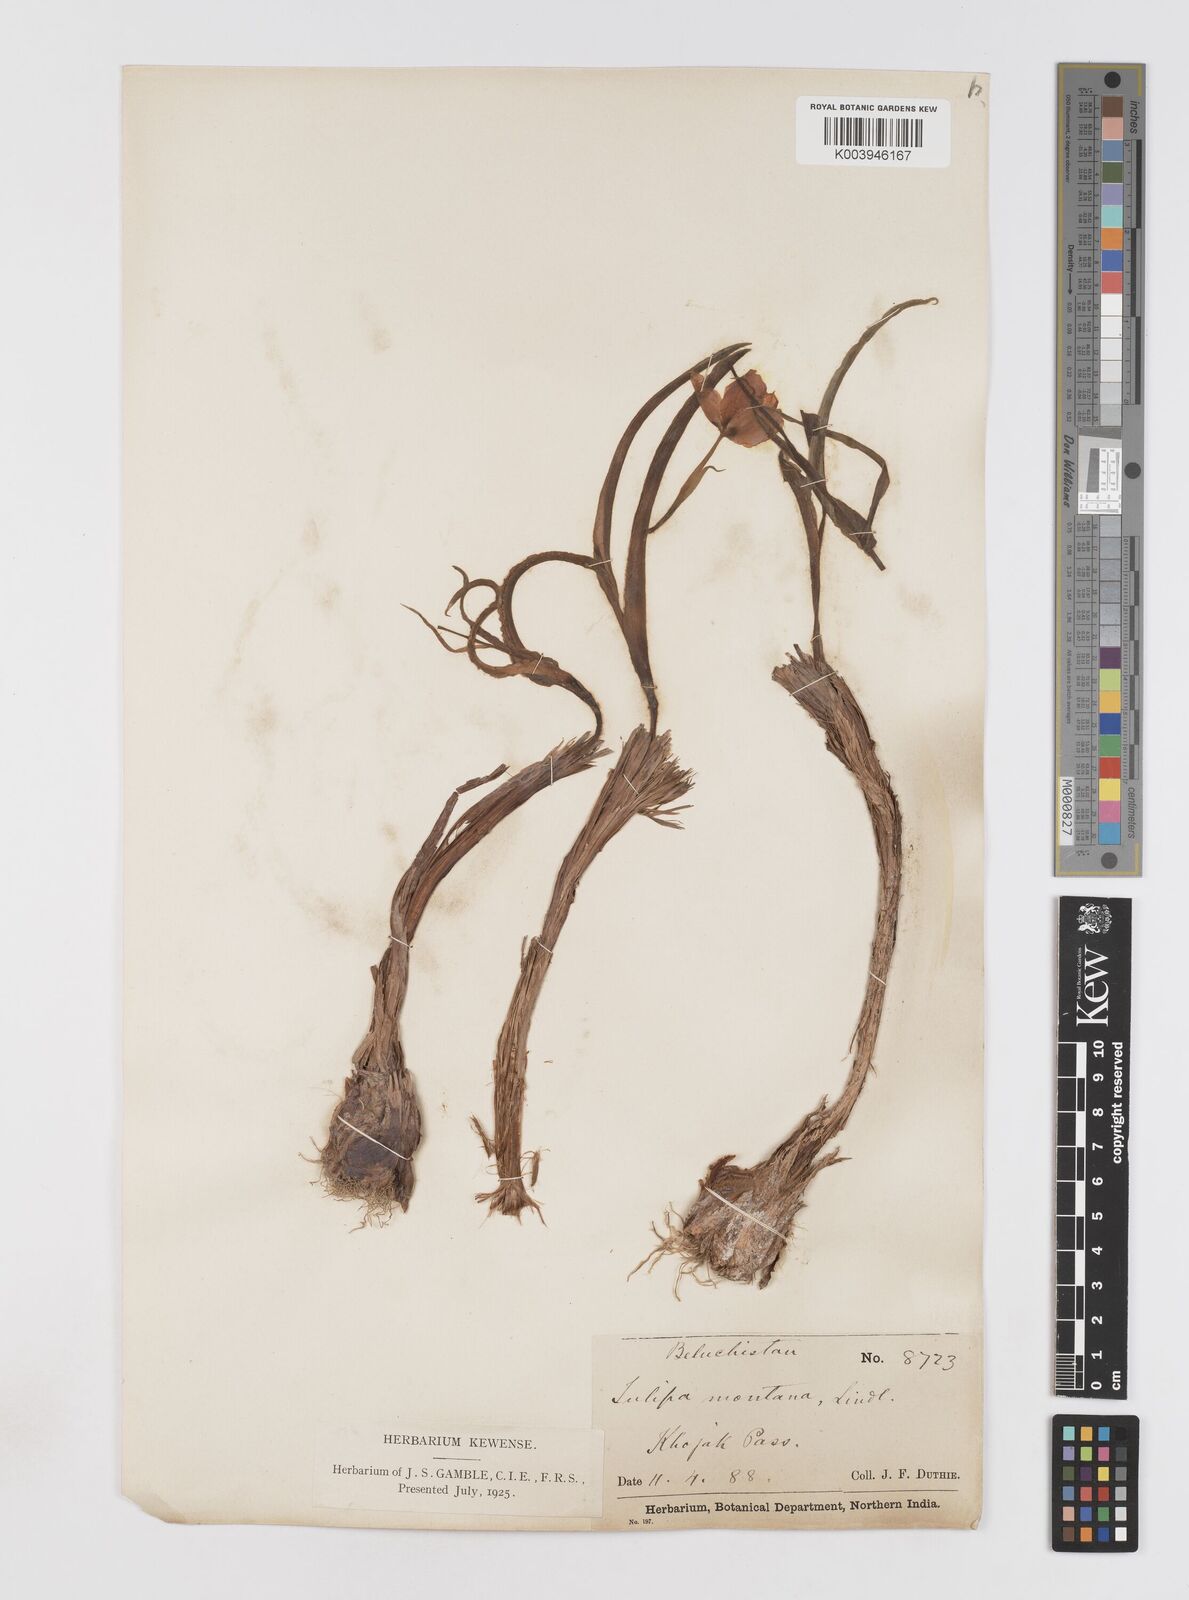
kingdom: Plantae
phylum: Tracheophyta
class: Liliopsida
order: Liliales
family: Liliaceae
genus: Tulipa
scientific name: Tulipa borszczowii
